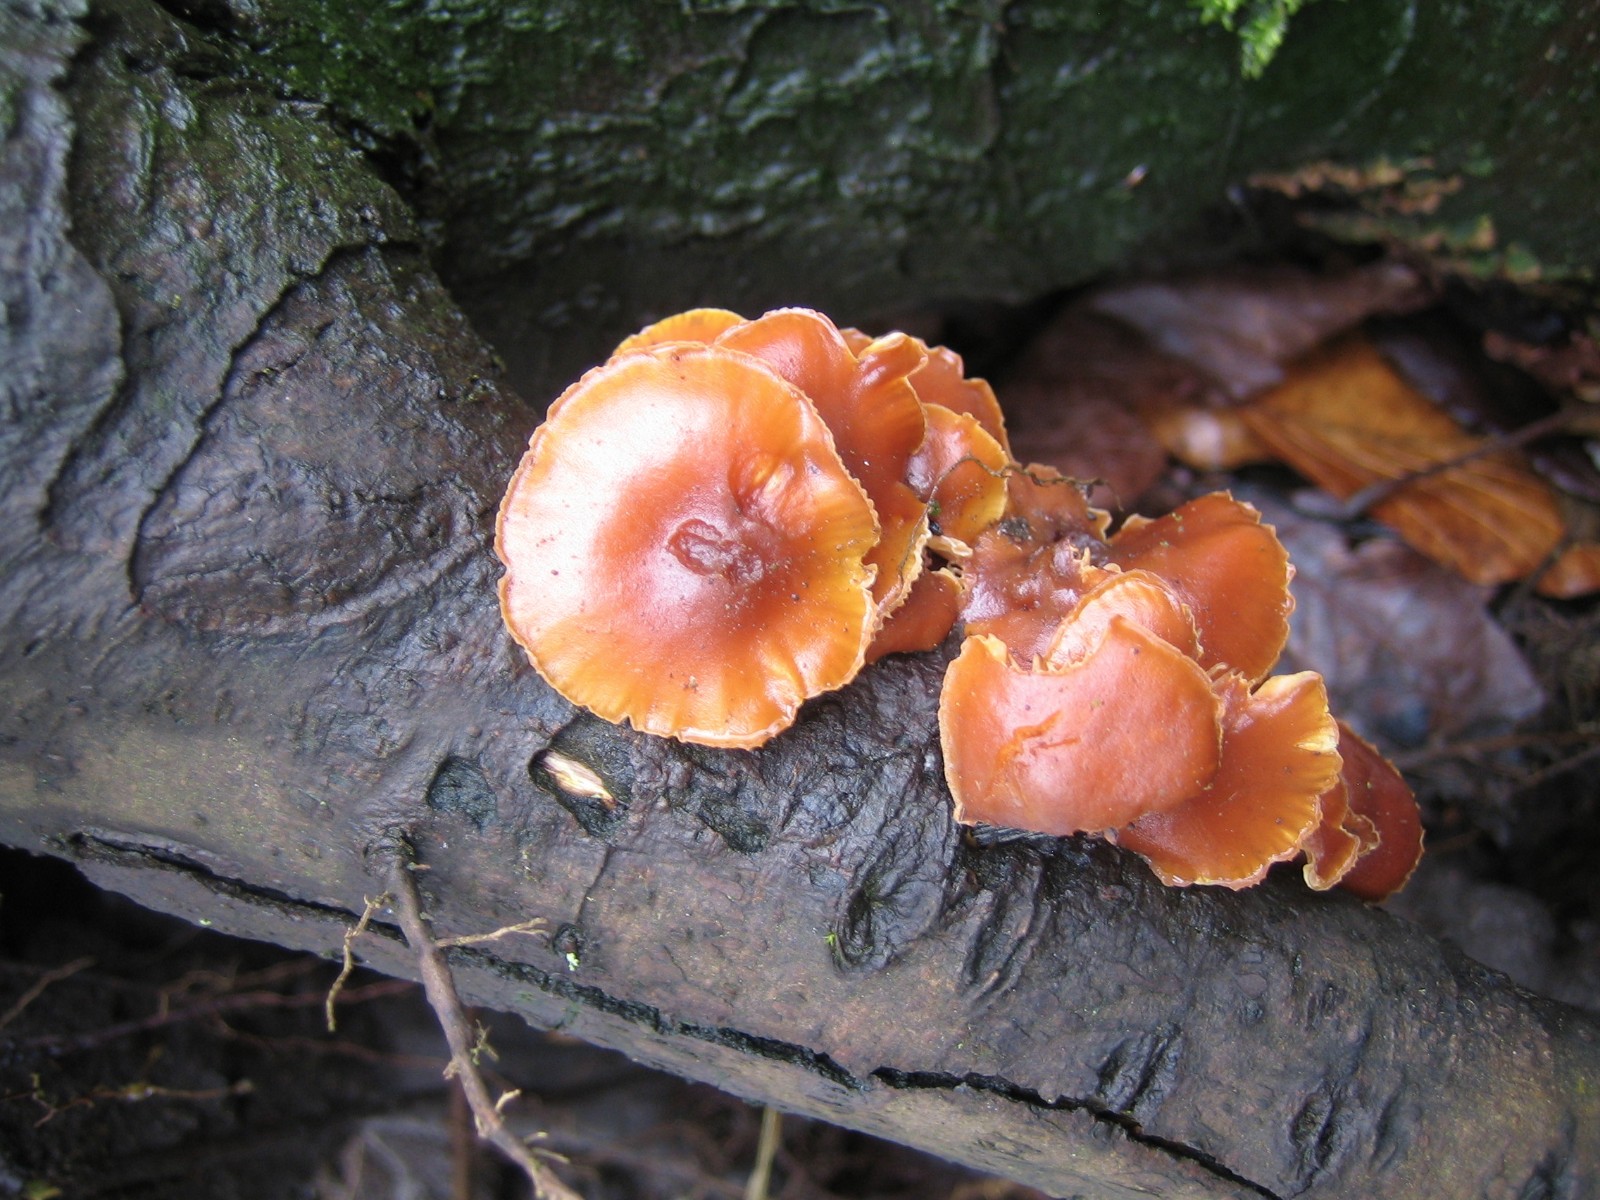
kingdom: Fungi
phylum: Basidiomycota
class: Agaricomycetes
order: Agaricales
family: Physalacriaceae
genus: Flammulina
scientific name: Flammulina velutipes
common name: gul fløjlsfod
